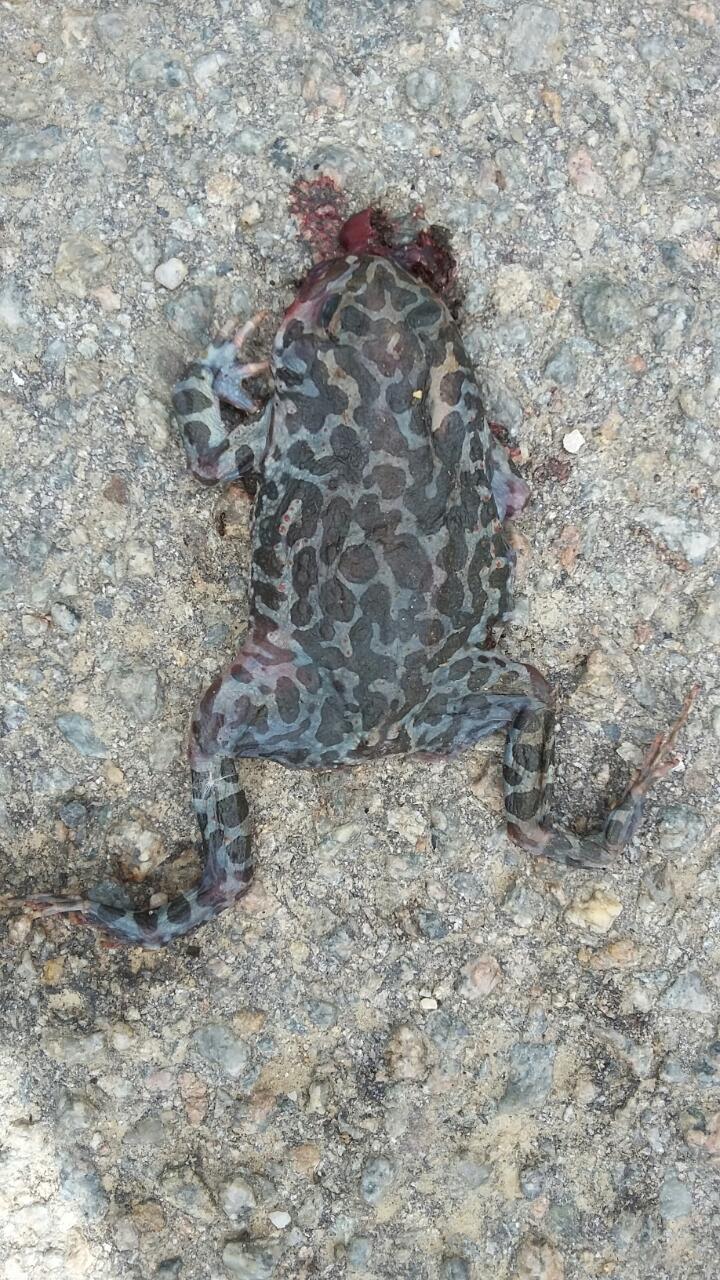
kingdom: Animalia
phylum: Chordata
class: Amphibia
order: Anura
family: Bufonidae
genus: Bufotes
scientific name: Bufotes viridis
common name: European green toad
